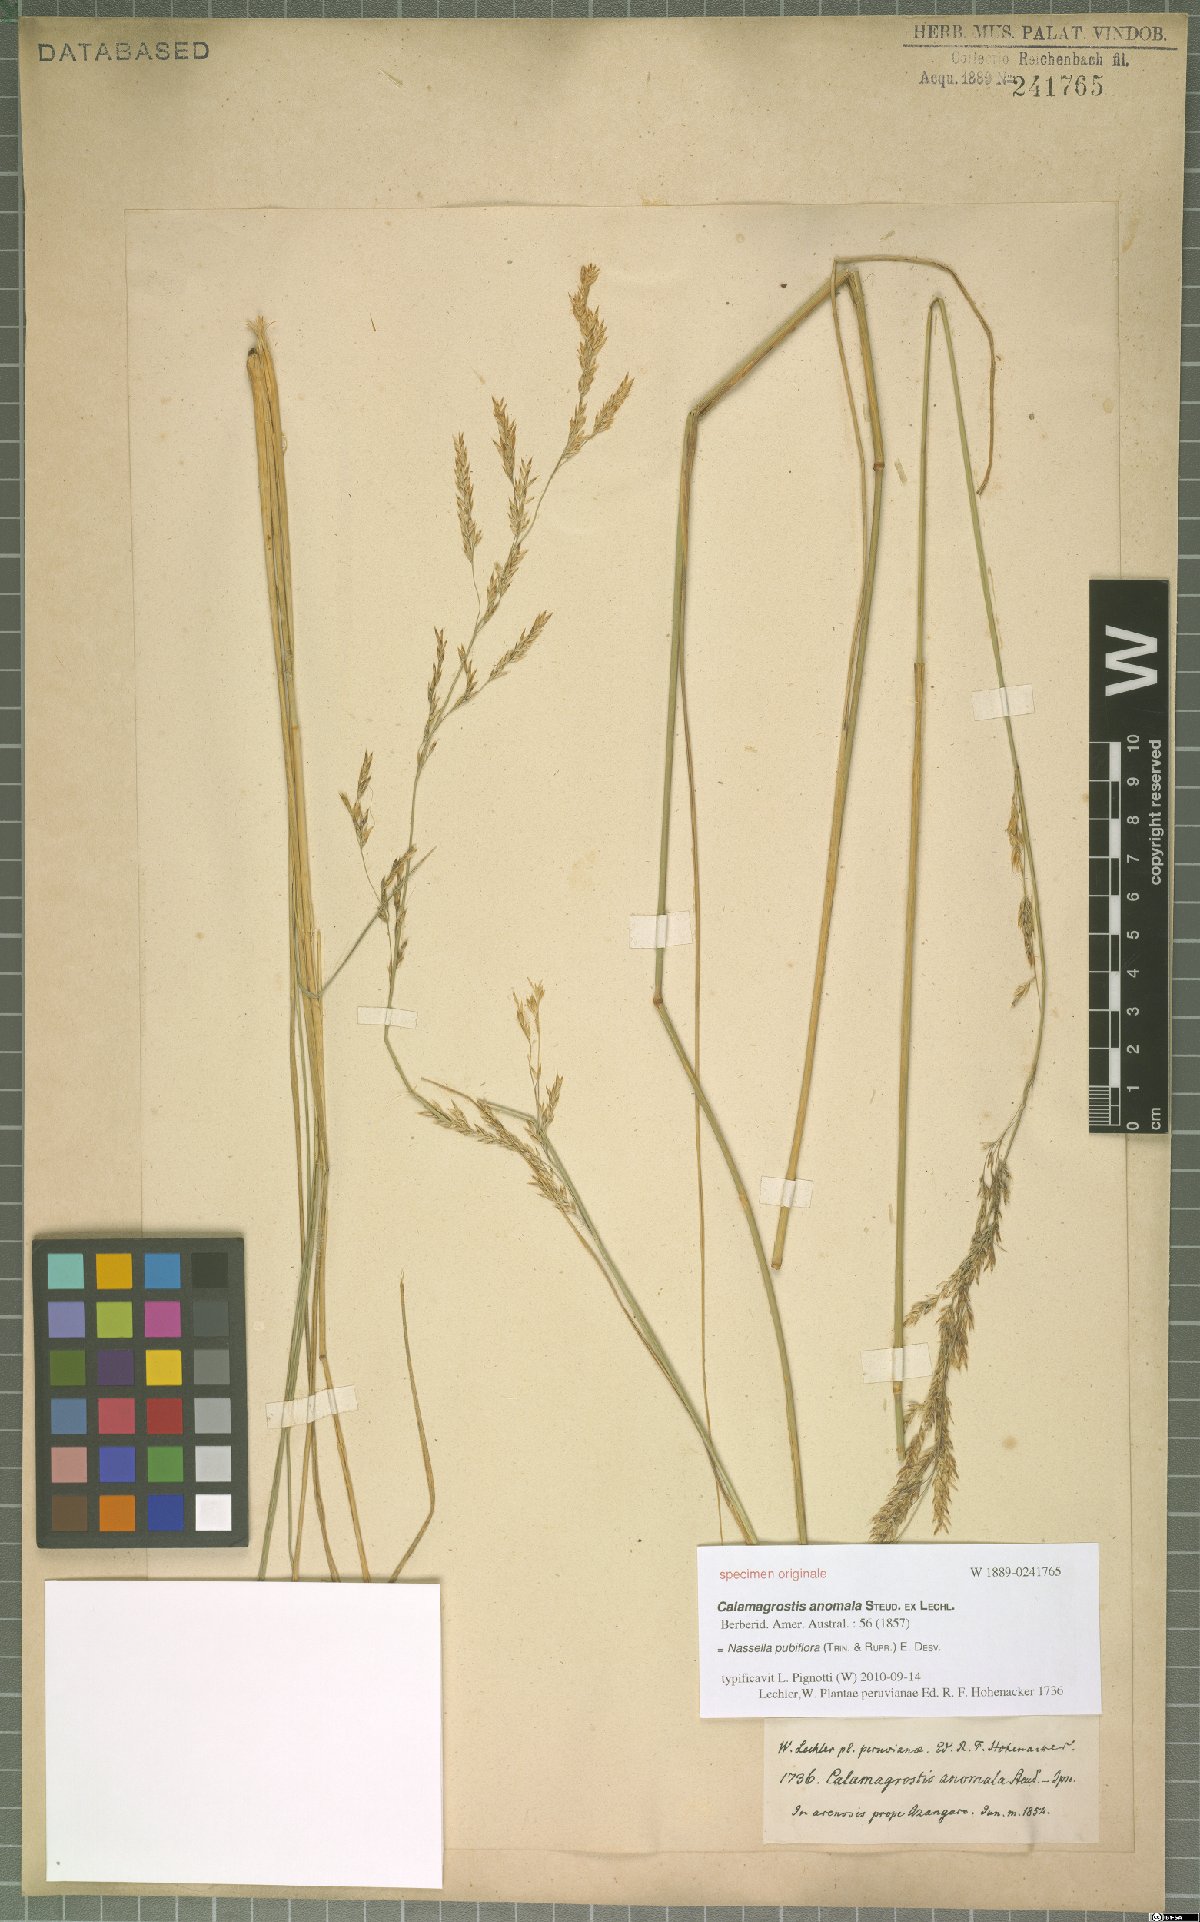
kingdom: Plantae
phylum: Tracheophyta
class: Liliopsida
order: Poales
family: Poaceae
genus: Nassella
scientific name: Nassella pubiflora
